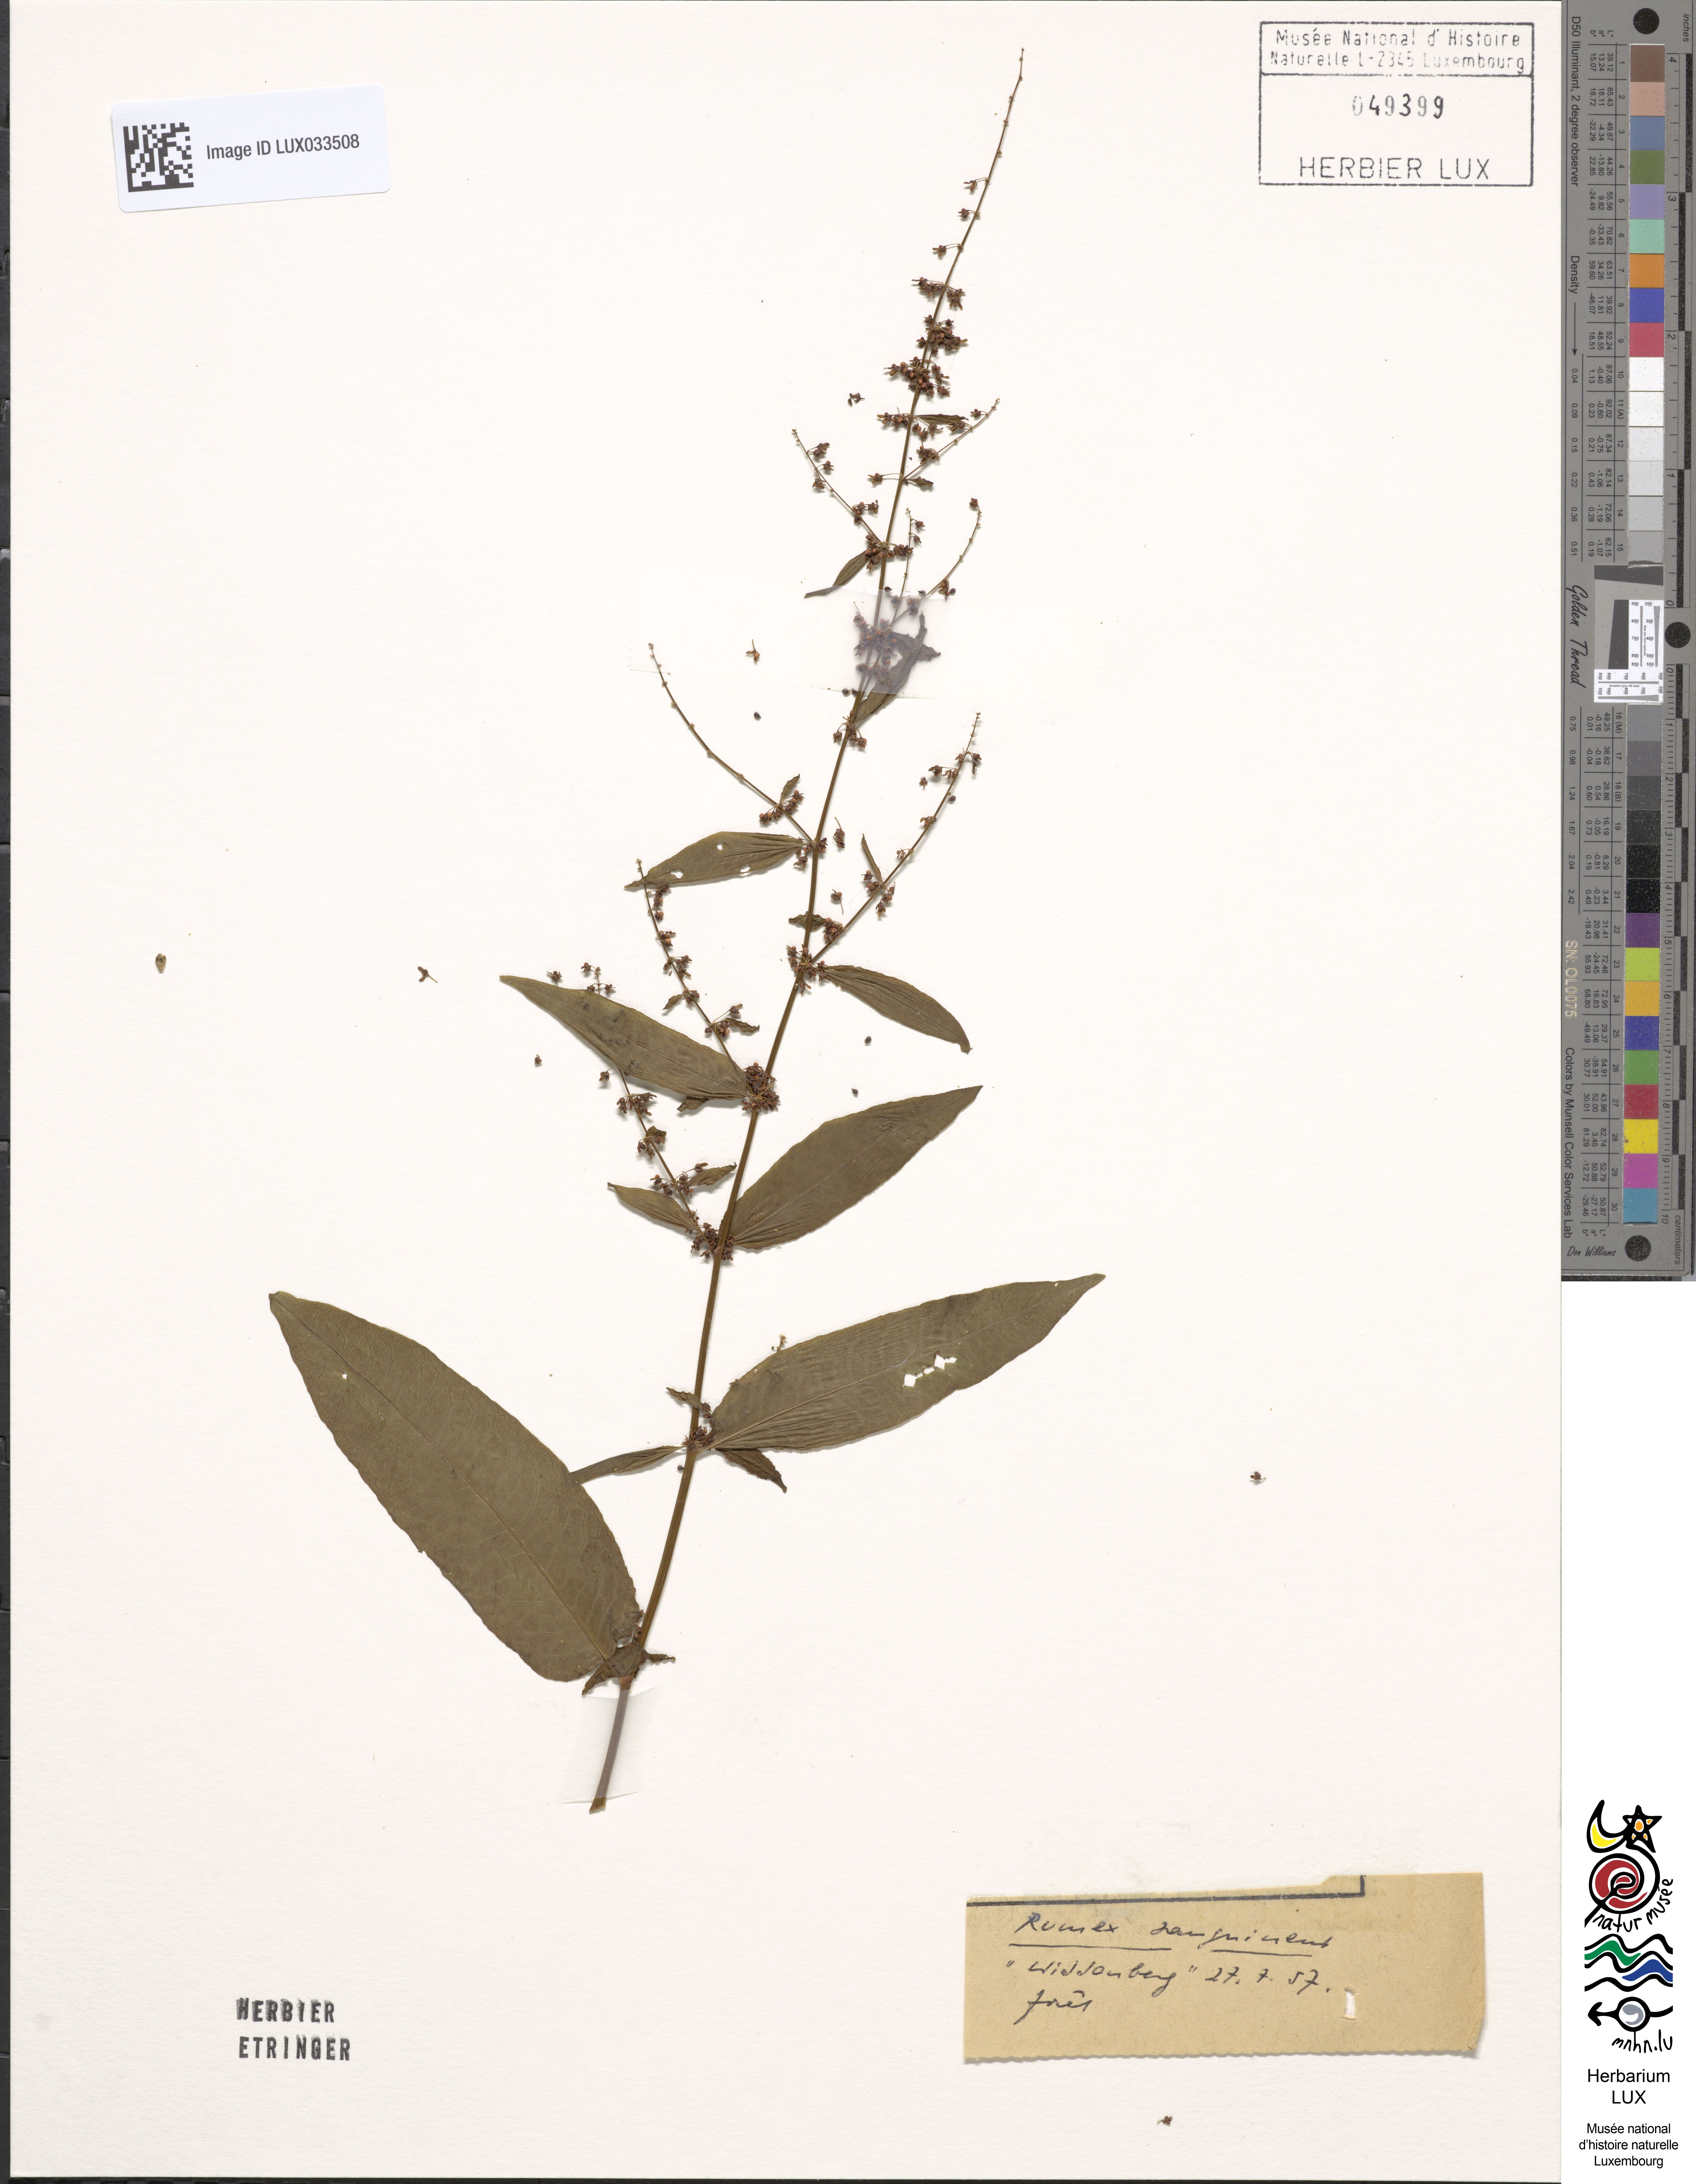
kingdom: Plantae
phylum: Tracheophyta
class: Magnoliopsida
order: Caryophyllales
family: Polygonaceae
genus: Rumex
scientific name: Rumex sanguineus
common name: Wood dock
